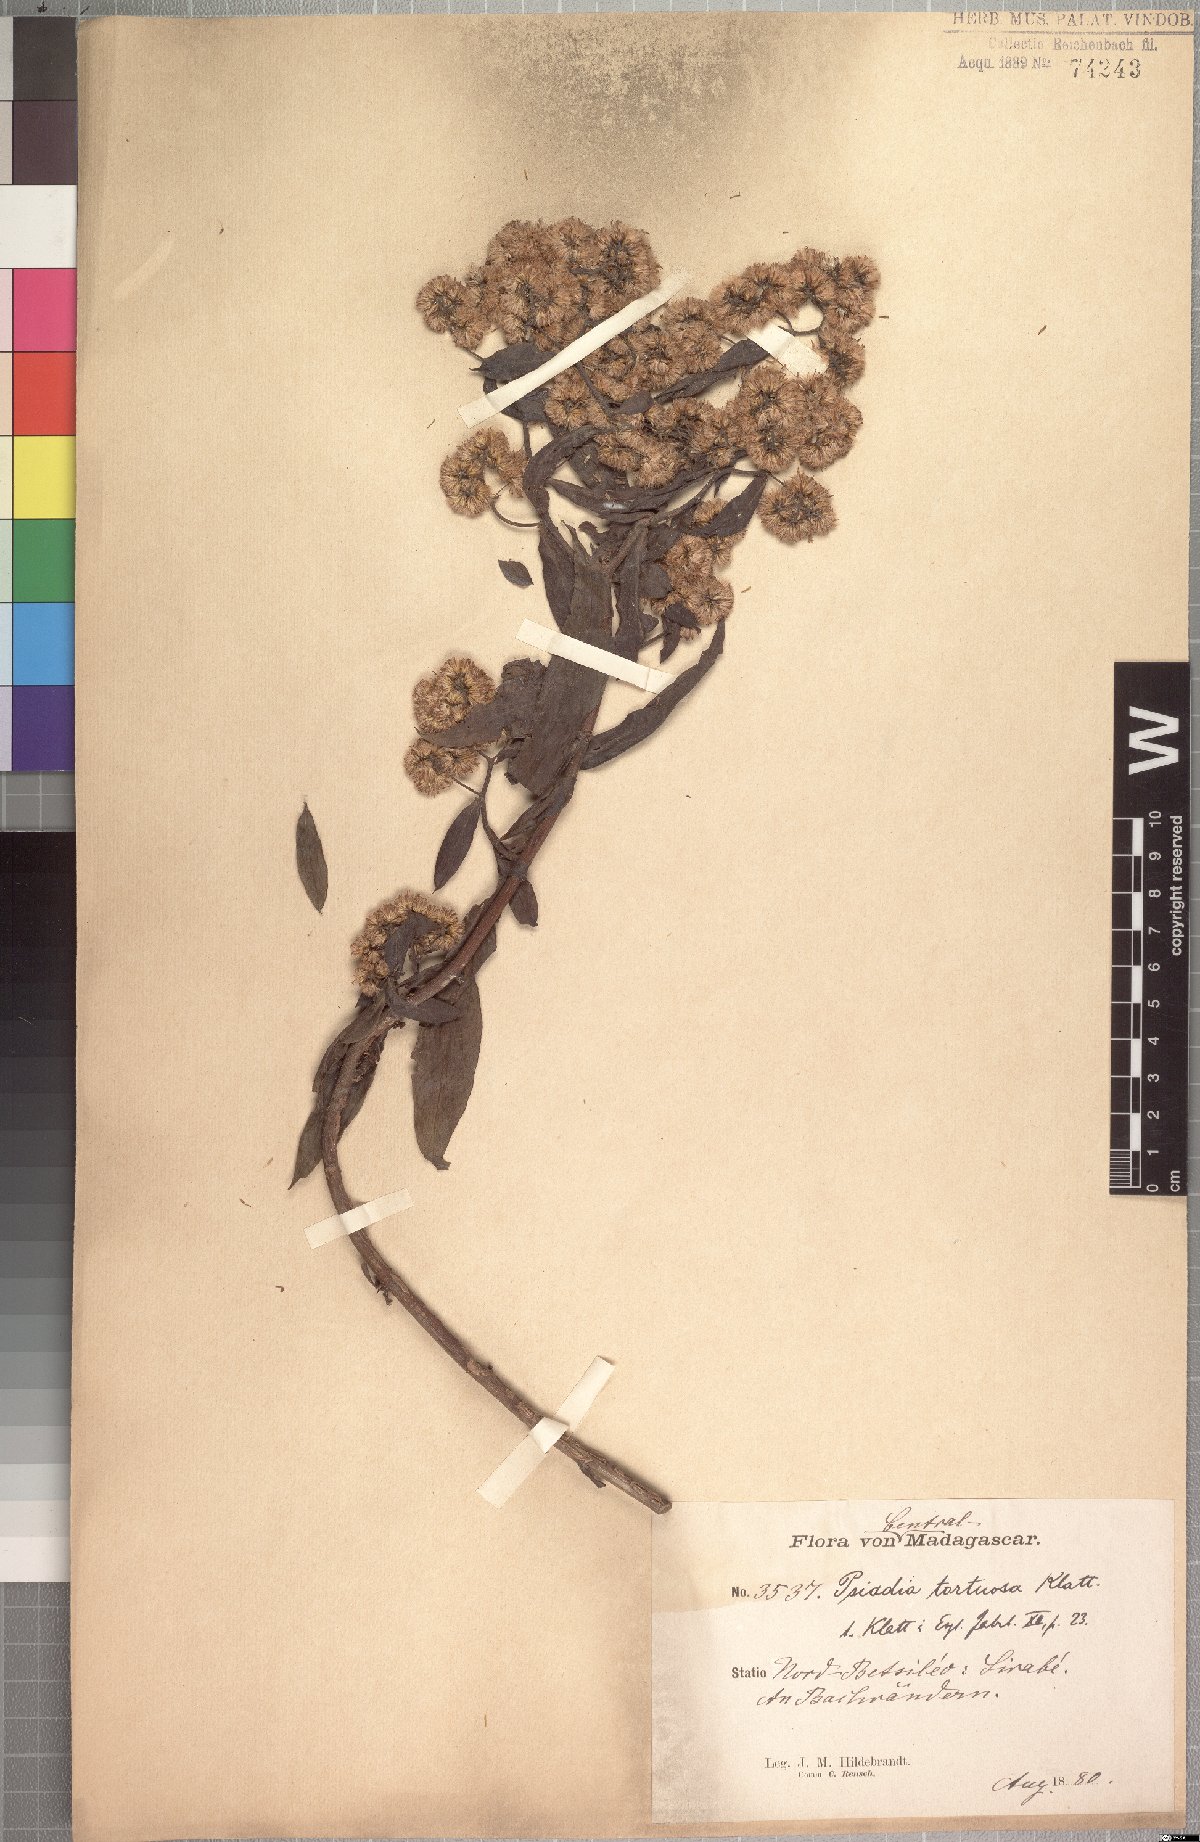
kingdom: Plantae
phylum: Tracheophyta
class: Magnoliopsida
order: Asterales
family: Asteraceae
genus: Psiadia
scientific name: Psiadia lucida
